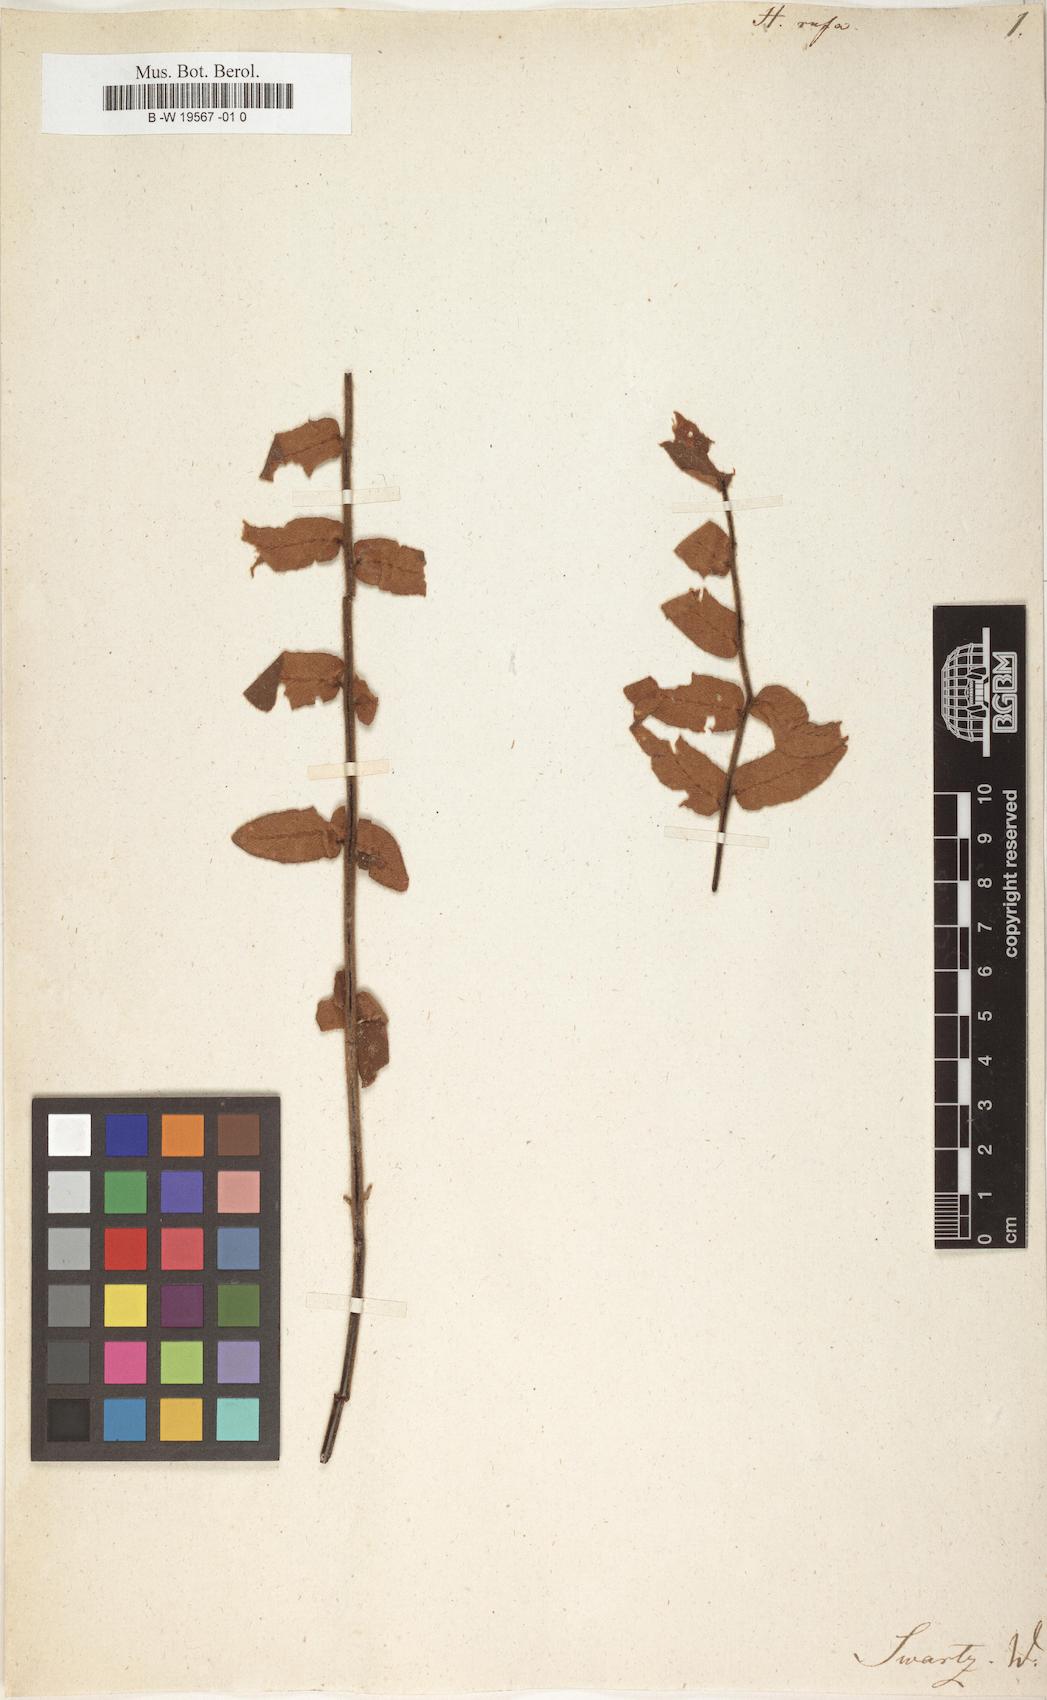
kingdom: Plantae
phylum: Tracheophyta
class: Polypodiopsida
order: Polypodiales
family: Pteridaceae
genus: Hemionitis
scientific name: Hemionitis rufa
